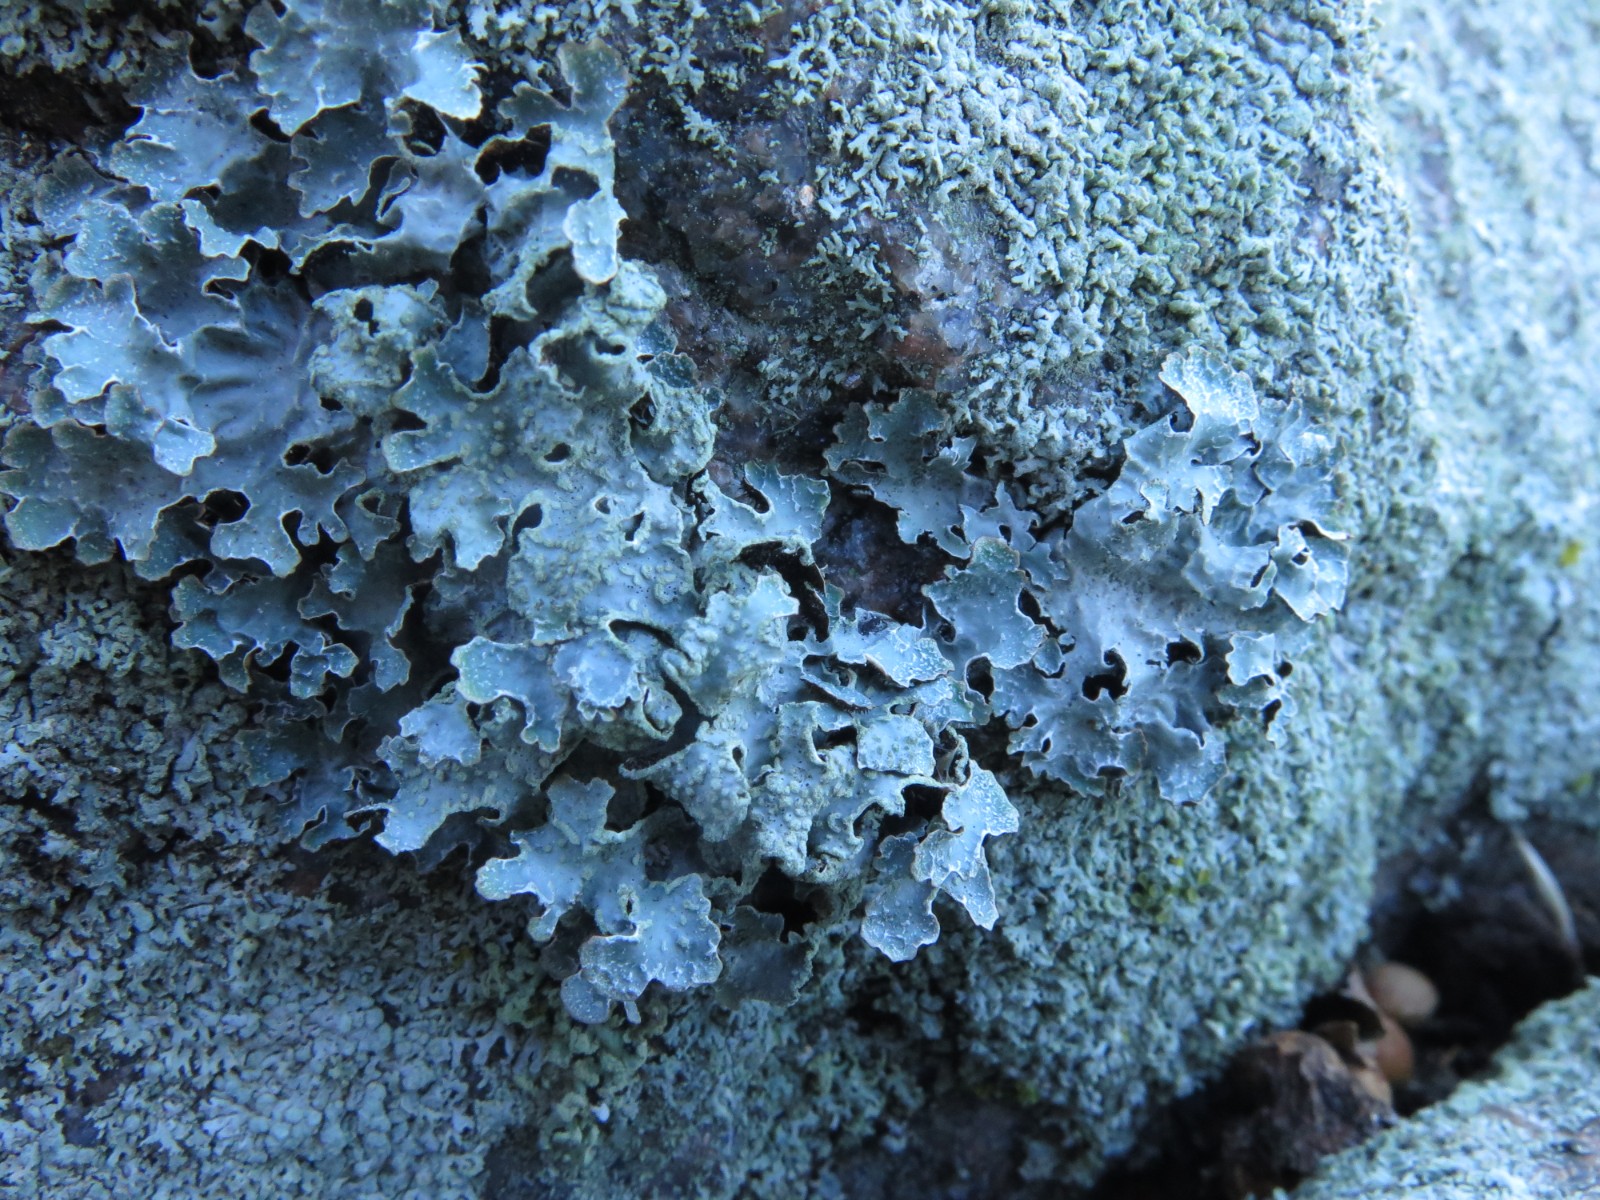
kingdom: Fungi
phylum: Ascomycota
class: Lecanoromycetes
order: Lecanorales
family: Parmeliaceae
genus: Parmelia
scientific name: Parmelia sulcata
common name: rynket skållav
